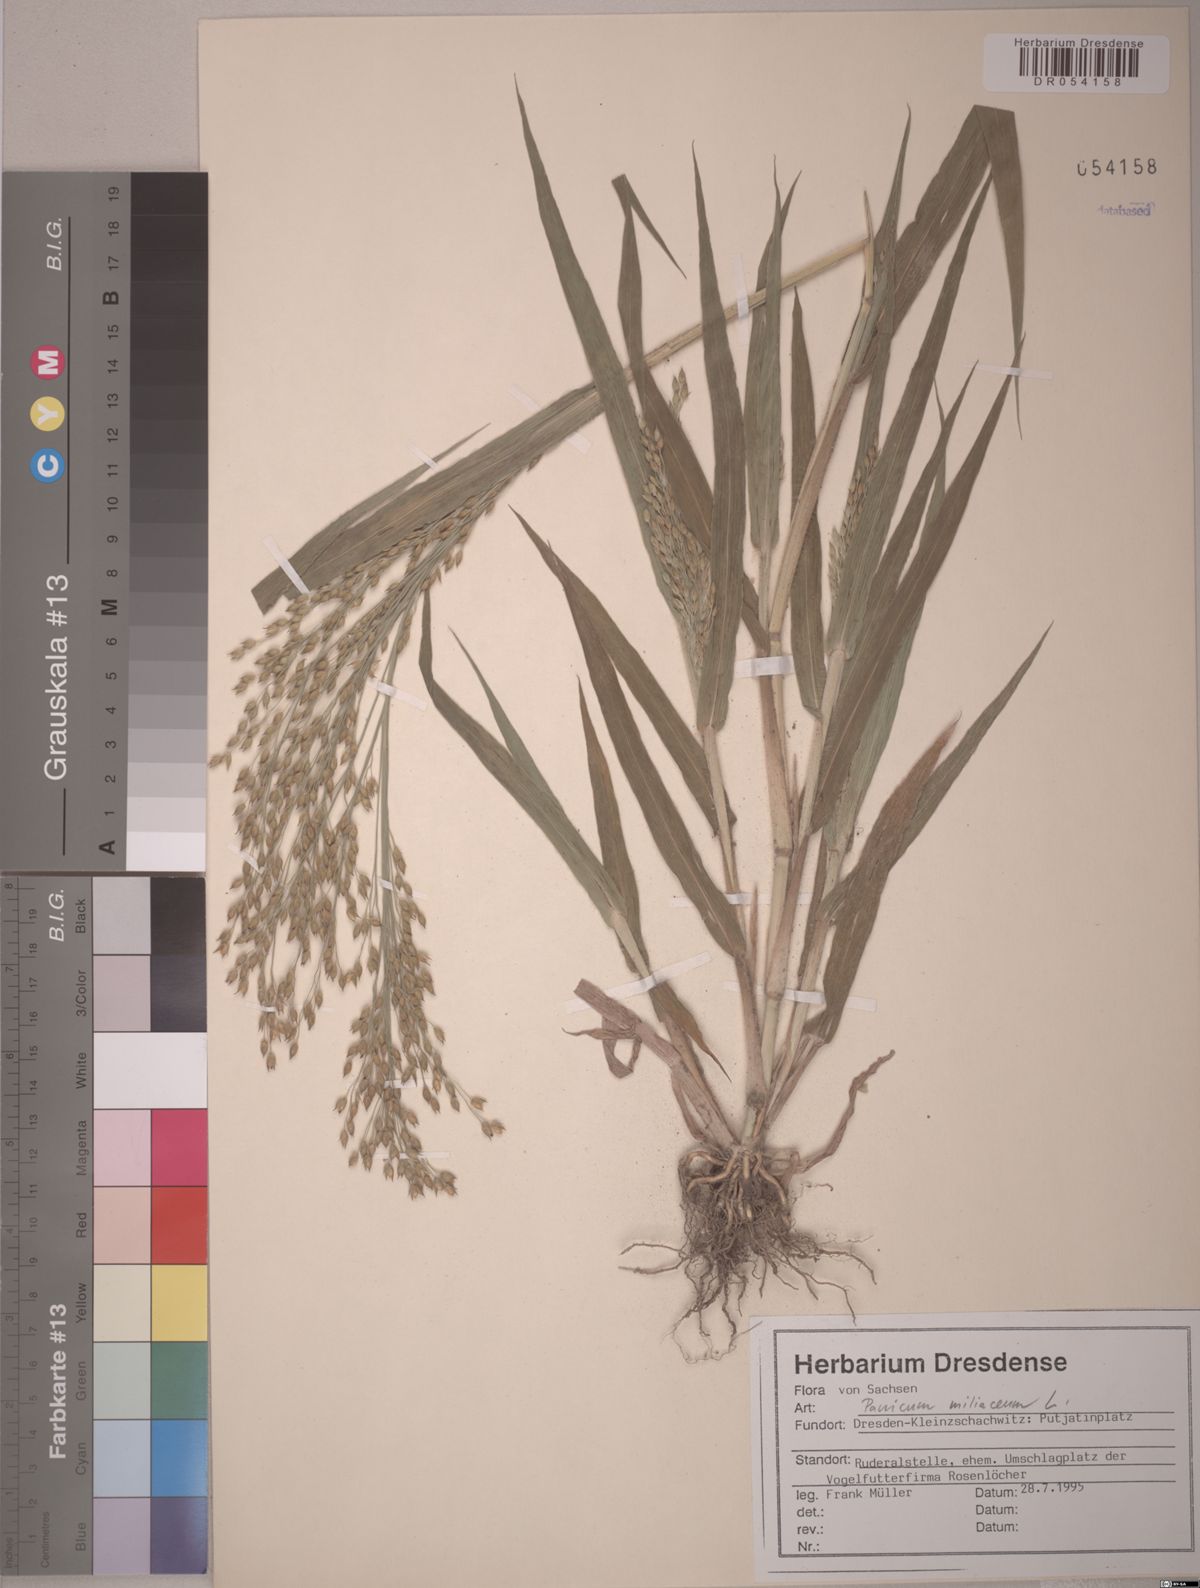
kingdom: Plantae
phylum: Tracheophyta
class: Liliopsida
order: Poales
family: Poaceae
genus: Panicum
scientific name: Panicum miliaceum
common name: Common millet
